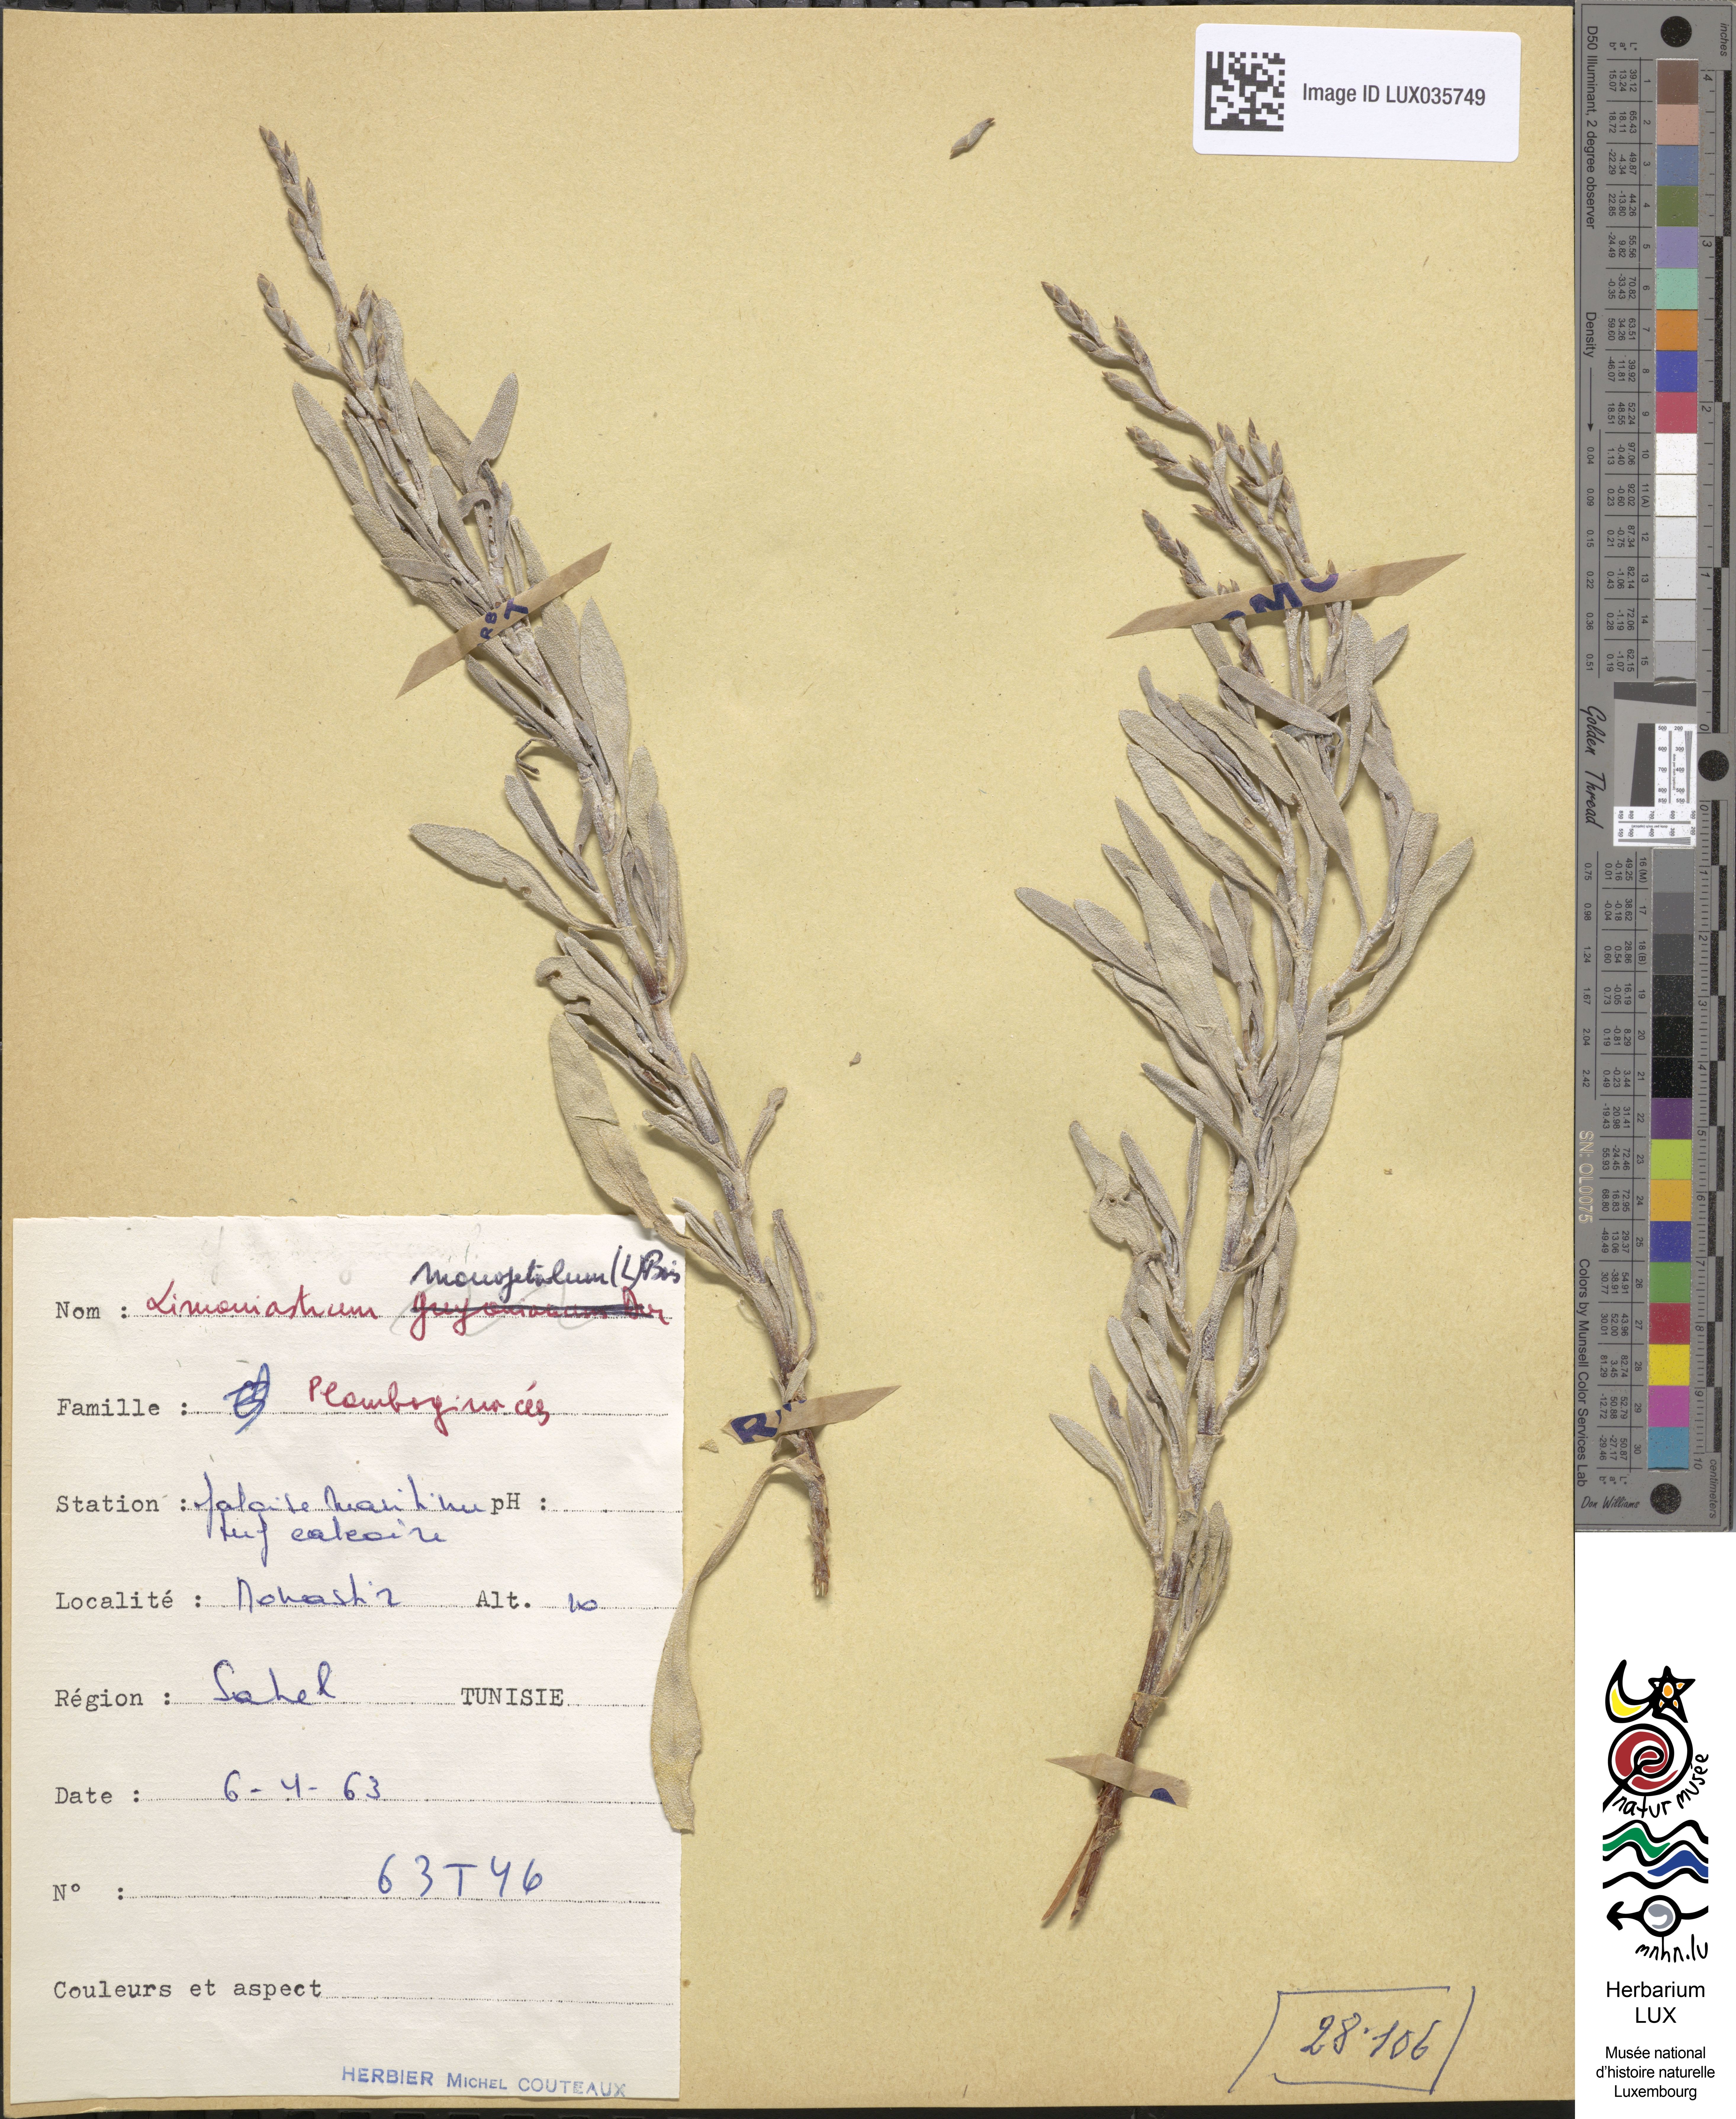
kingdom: Plantae
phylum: Tracheophyta
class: Magnoliopsida
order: Caryophyllales
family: Plumbaginaceae
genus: Limoniastrum
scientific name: Limoniastrum monopetalum
